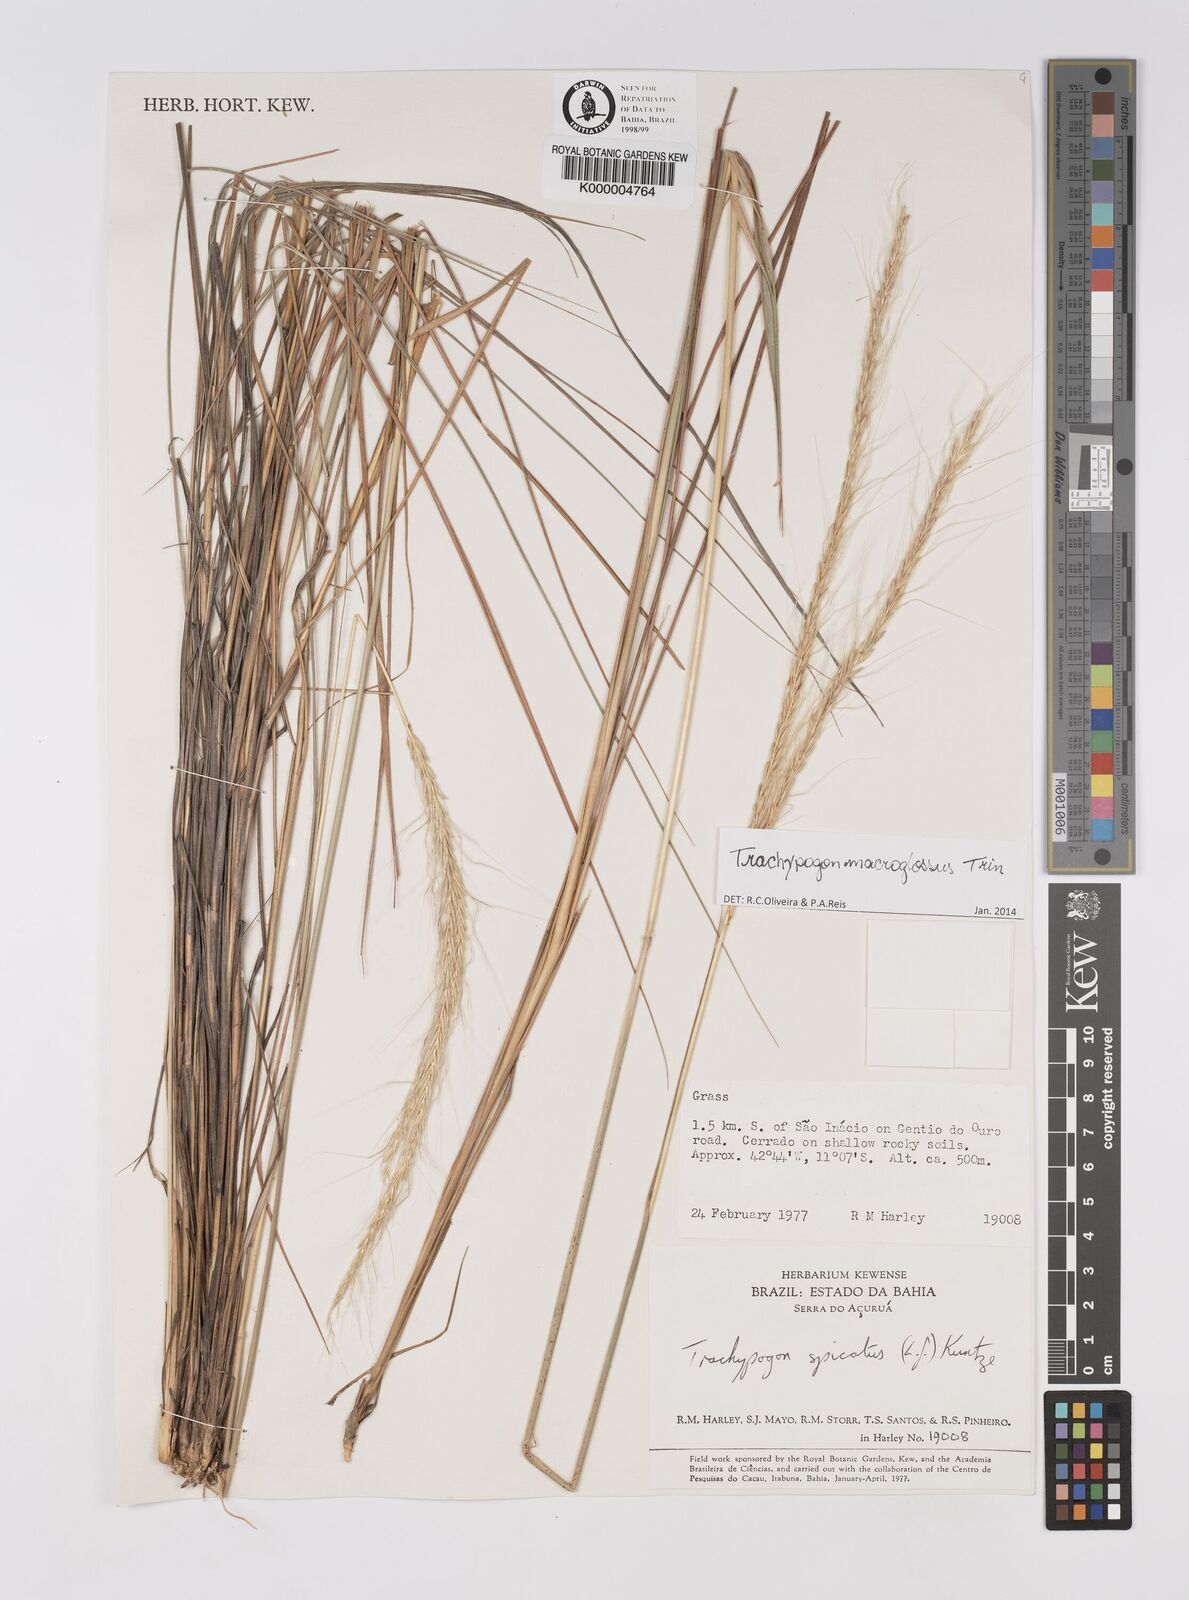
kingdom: Plantae
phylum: Tracheophyta
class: Liliopsida
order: Poales
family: Poaceae
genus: Trachypogon
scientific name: Trachypogon spicatus
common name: Crinkle-awn
